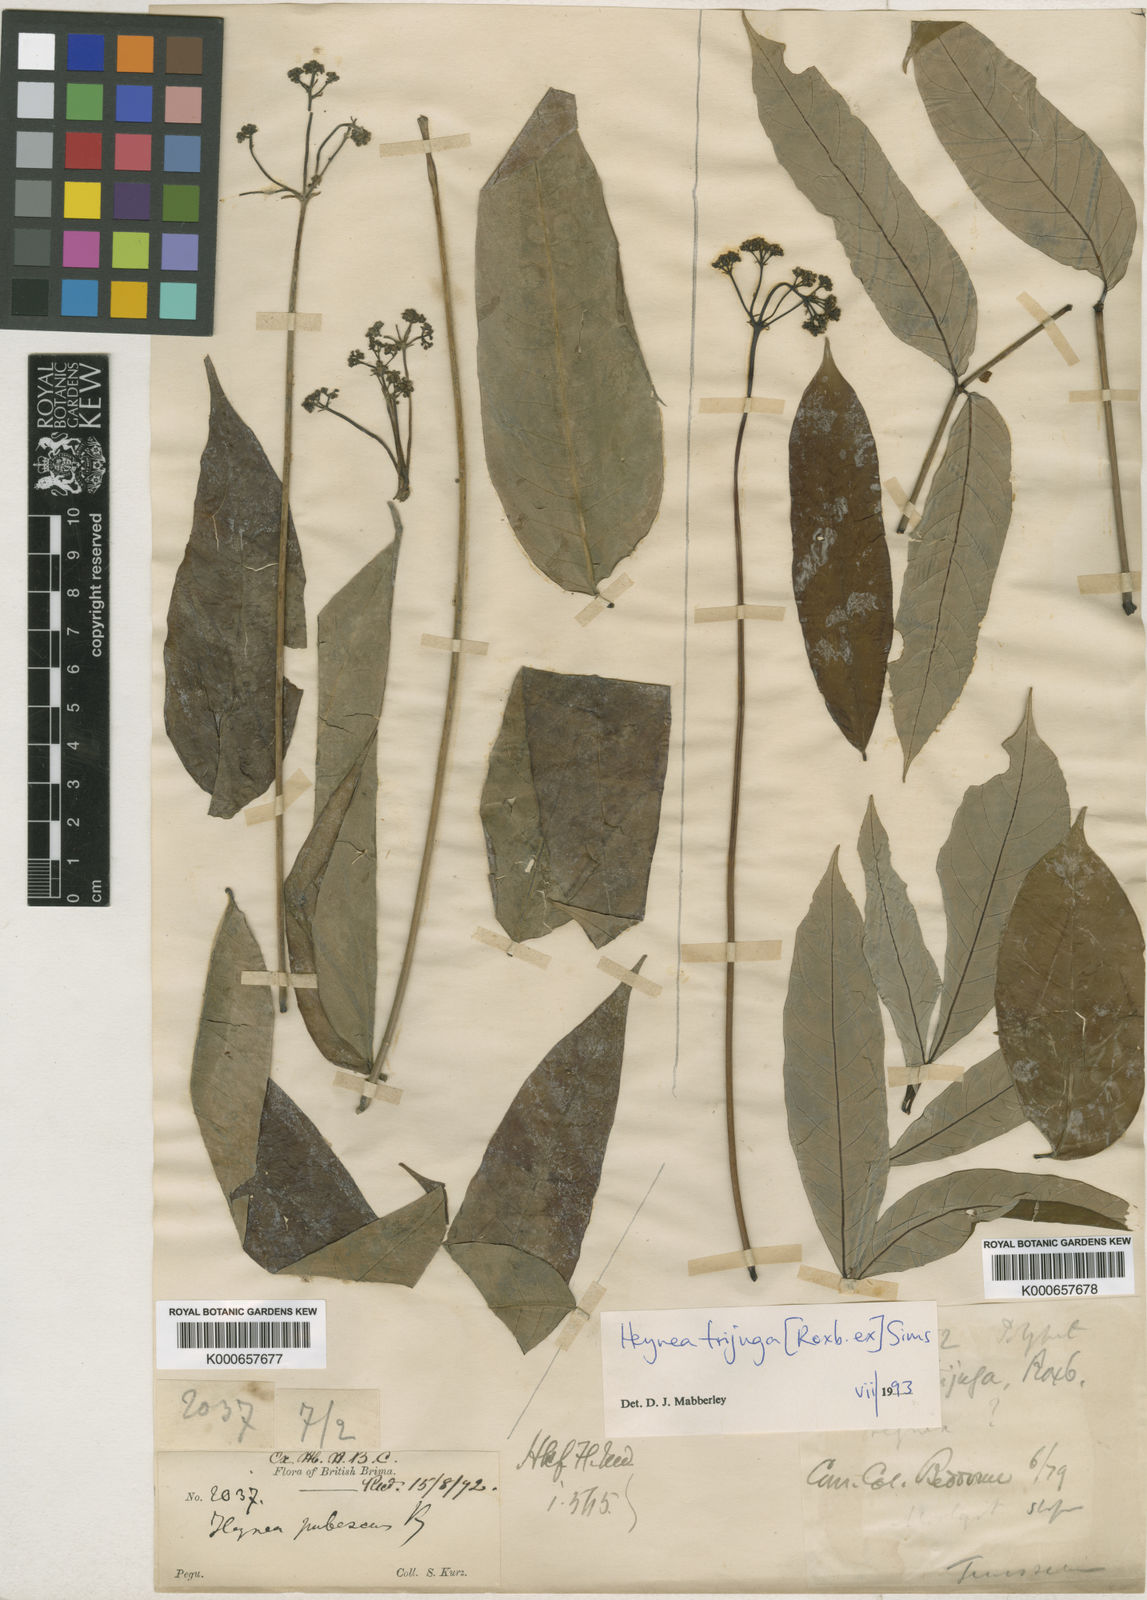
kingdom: Plantae
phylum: Tracheophyta
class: Magnoliopsida
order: Sapindales
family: Meliaceae
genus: Heynea
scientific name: Heynea trijuga
